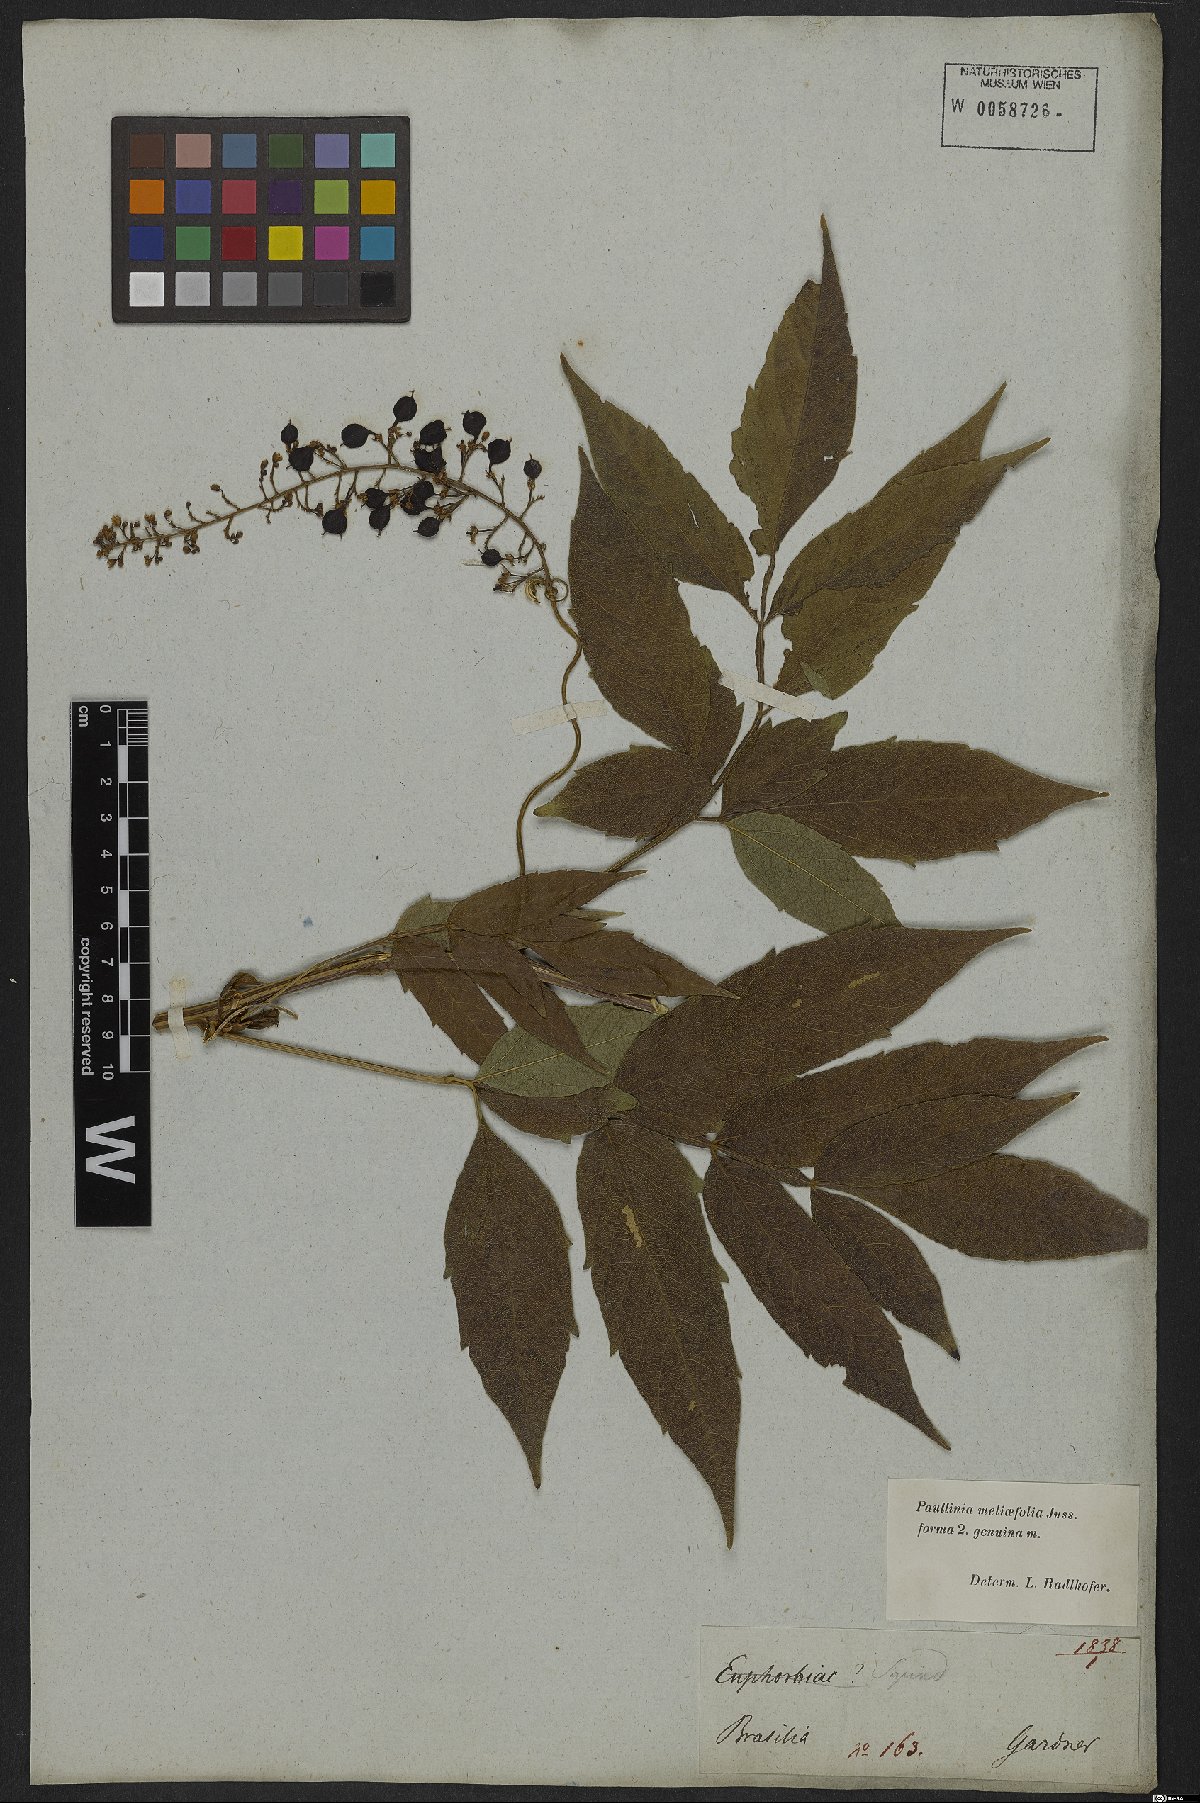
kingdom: Plantae
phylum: Tracheophyta
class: Magnoliopsida
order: Sapindales
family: Sapindaceae
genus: Paullinia
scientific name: Paullinia meliifolia
